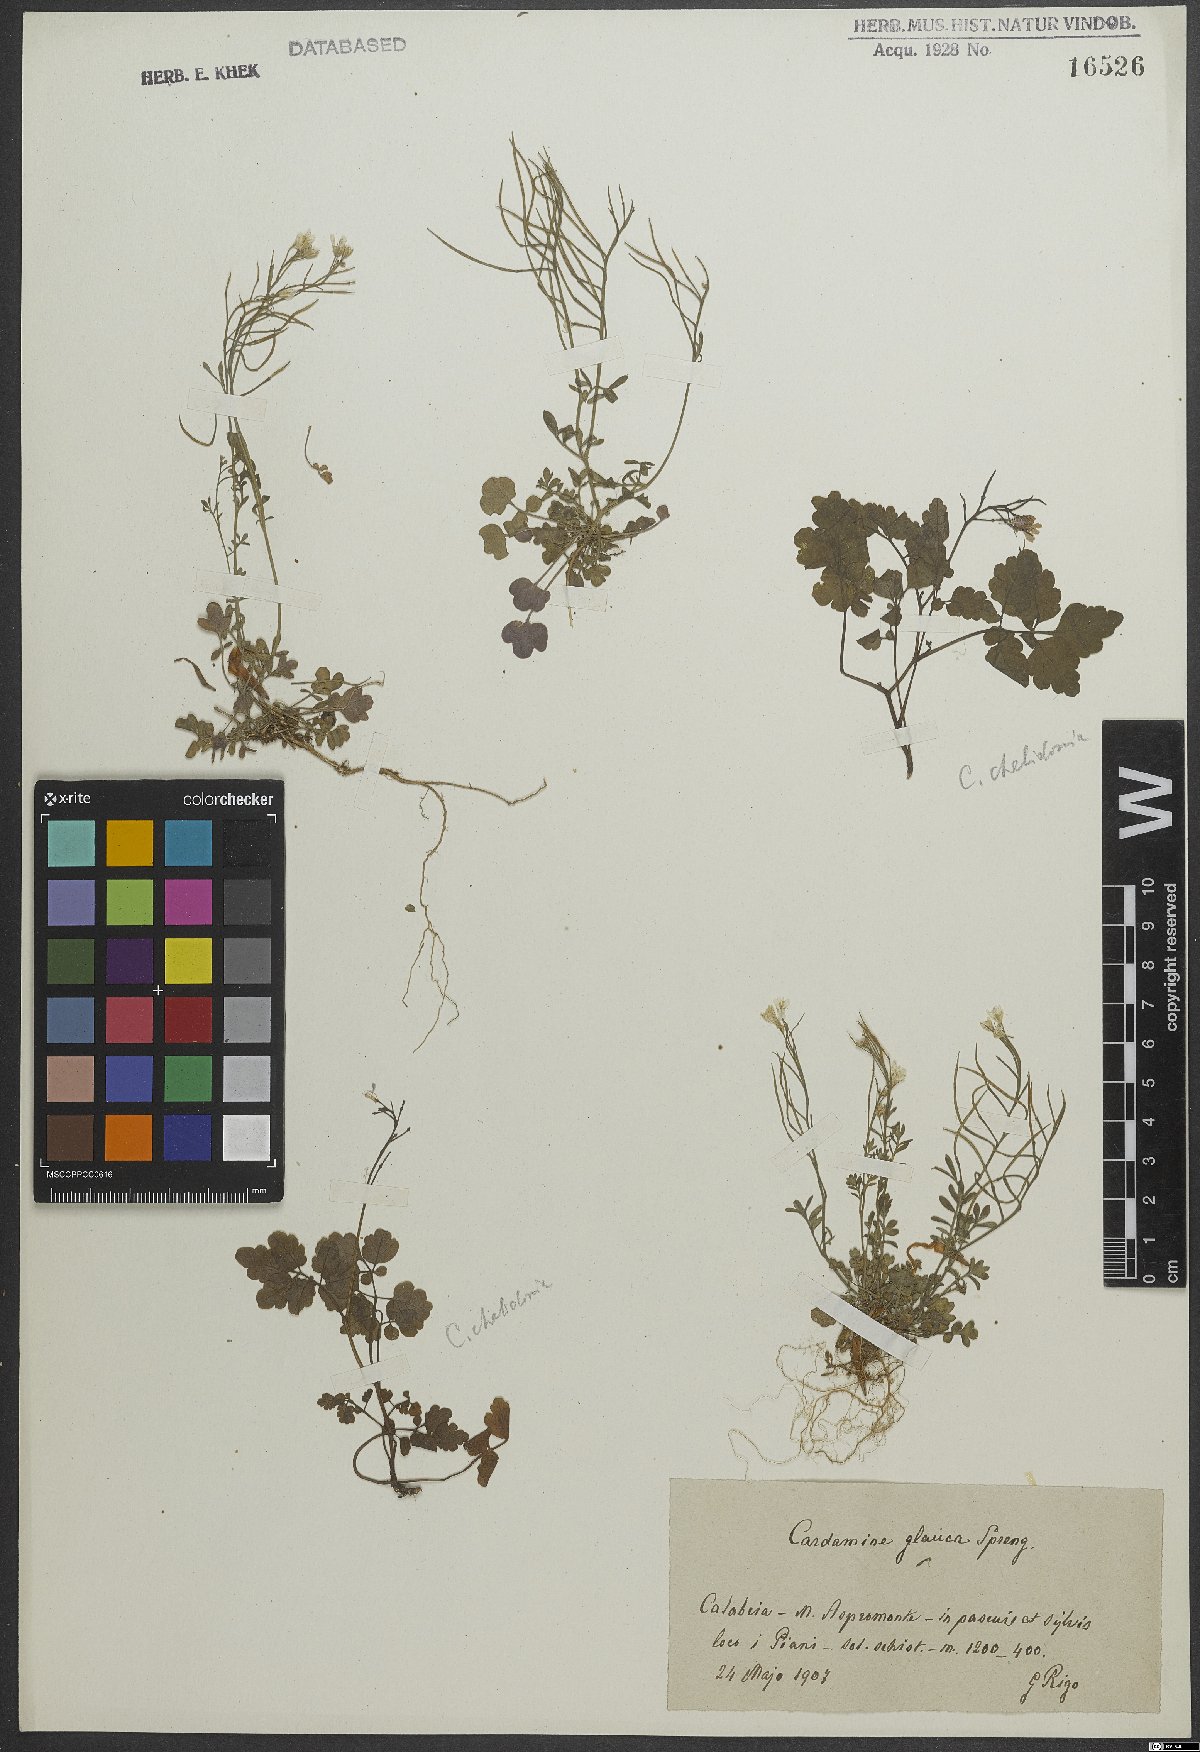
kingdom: Plantae
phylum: Tracheophyta
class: Magnoliopsida
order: Brassicales
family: Brassicaceae
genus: Cardamine
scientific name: Cardamine glauca
